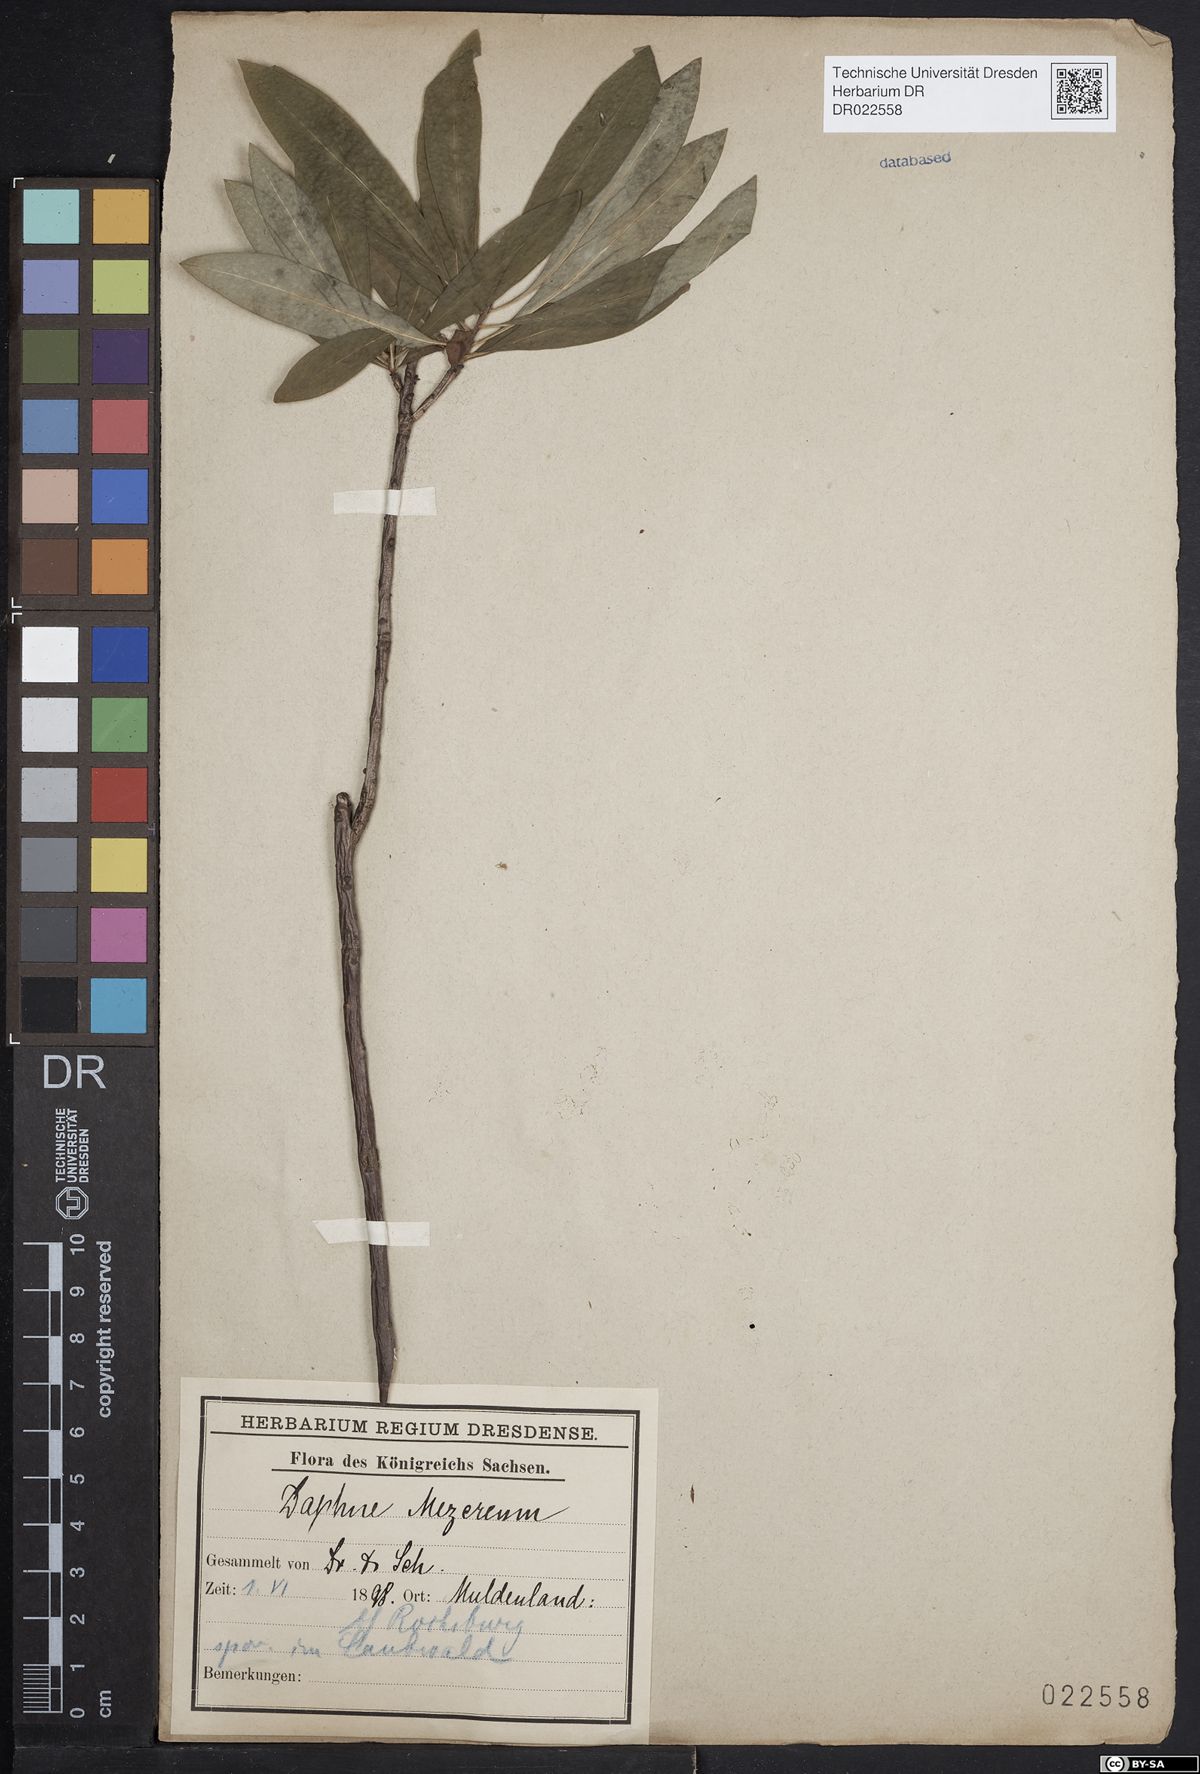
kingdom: Plantae
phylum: Tracheophyta
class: Magnoliopsida
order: Malvales
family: Thymelaeaceae
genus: Daphne
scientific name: Daphne mezereum
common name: Mezereon
